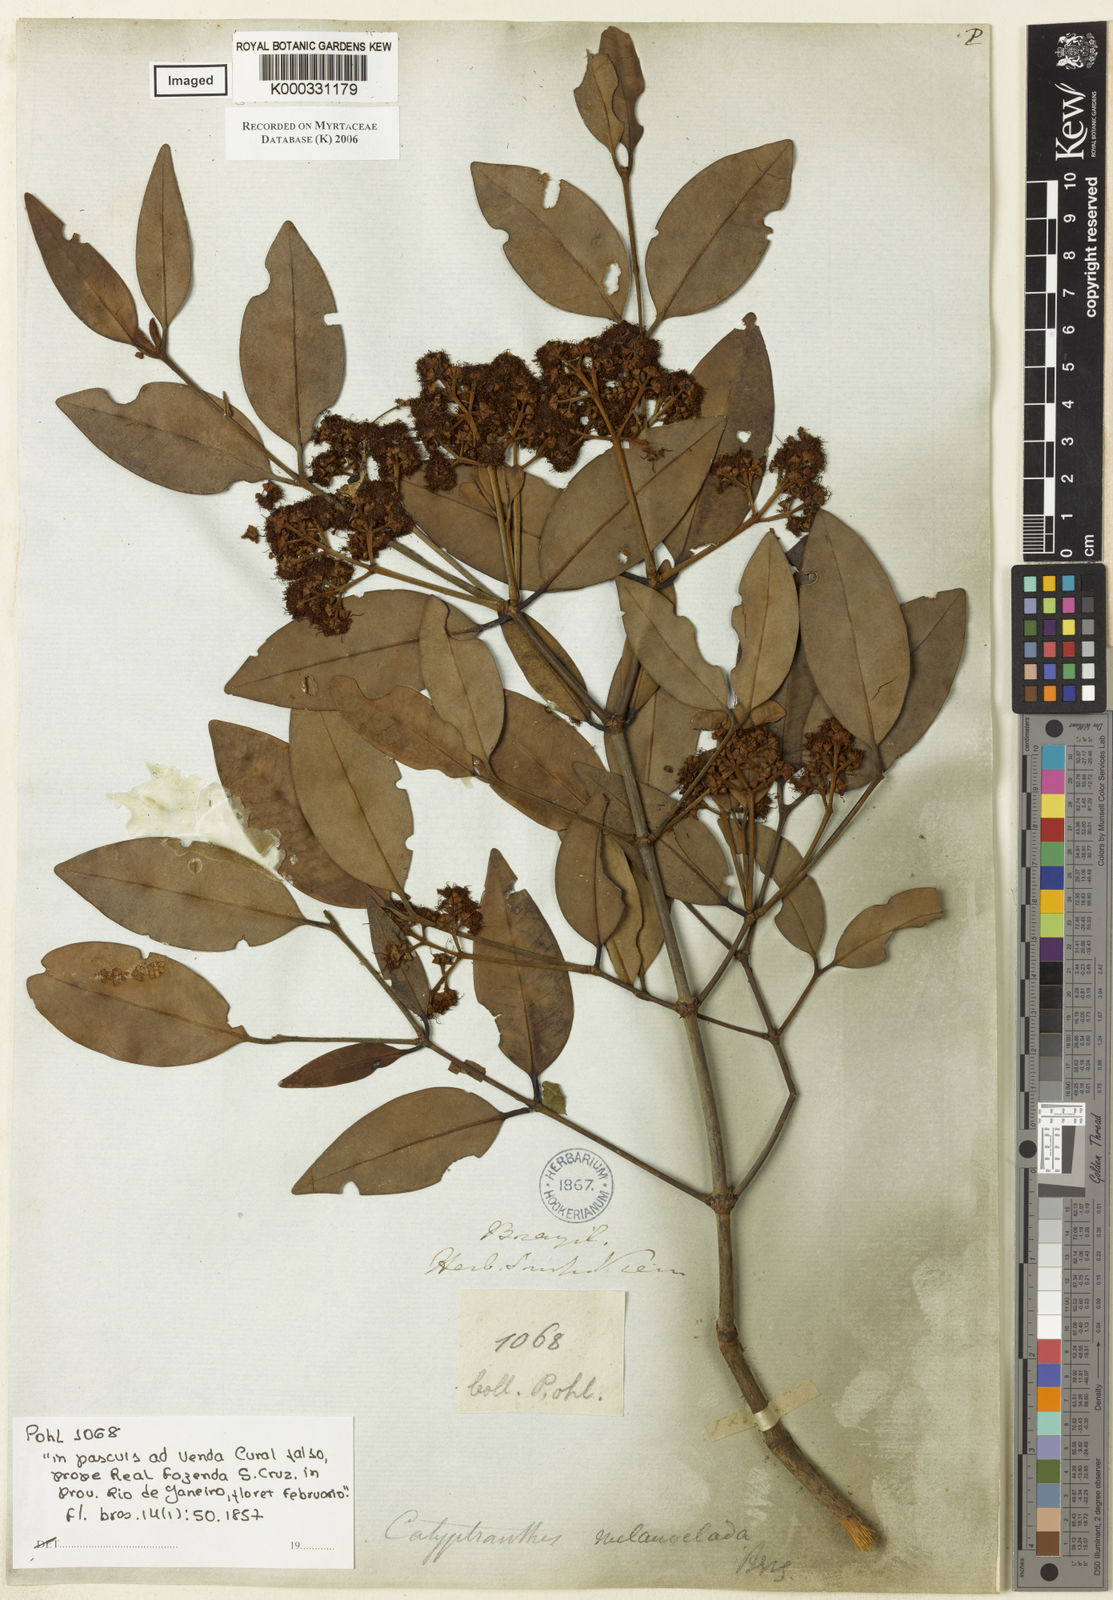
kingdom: Plantae
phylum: Tracheophyta
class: Magnoliopsida
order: Myrtales
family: Myrtaceae
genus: Calyptranthes
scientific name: Calyptranthes melanoclada
